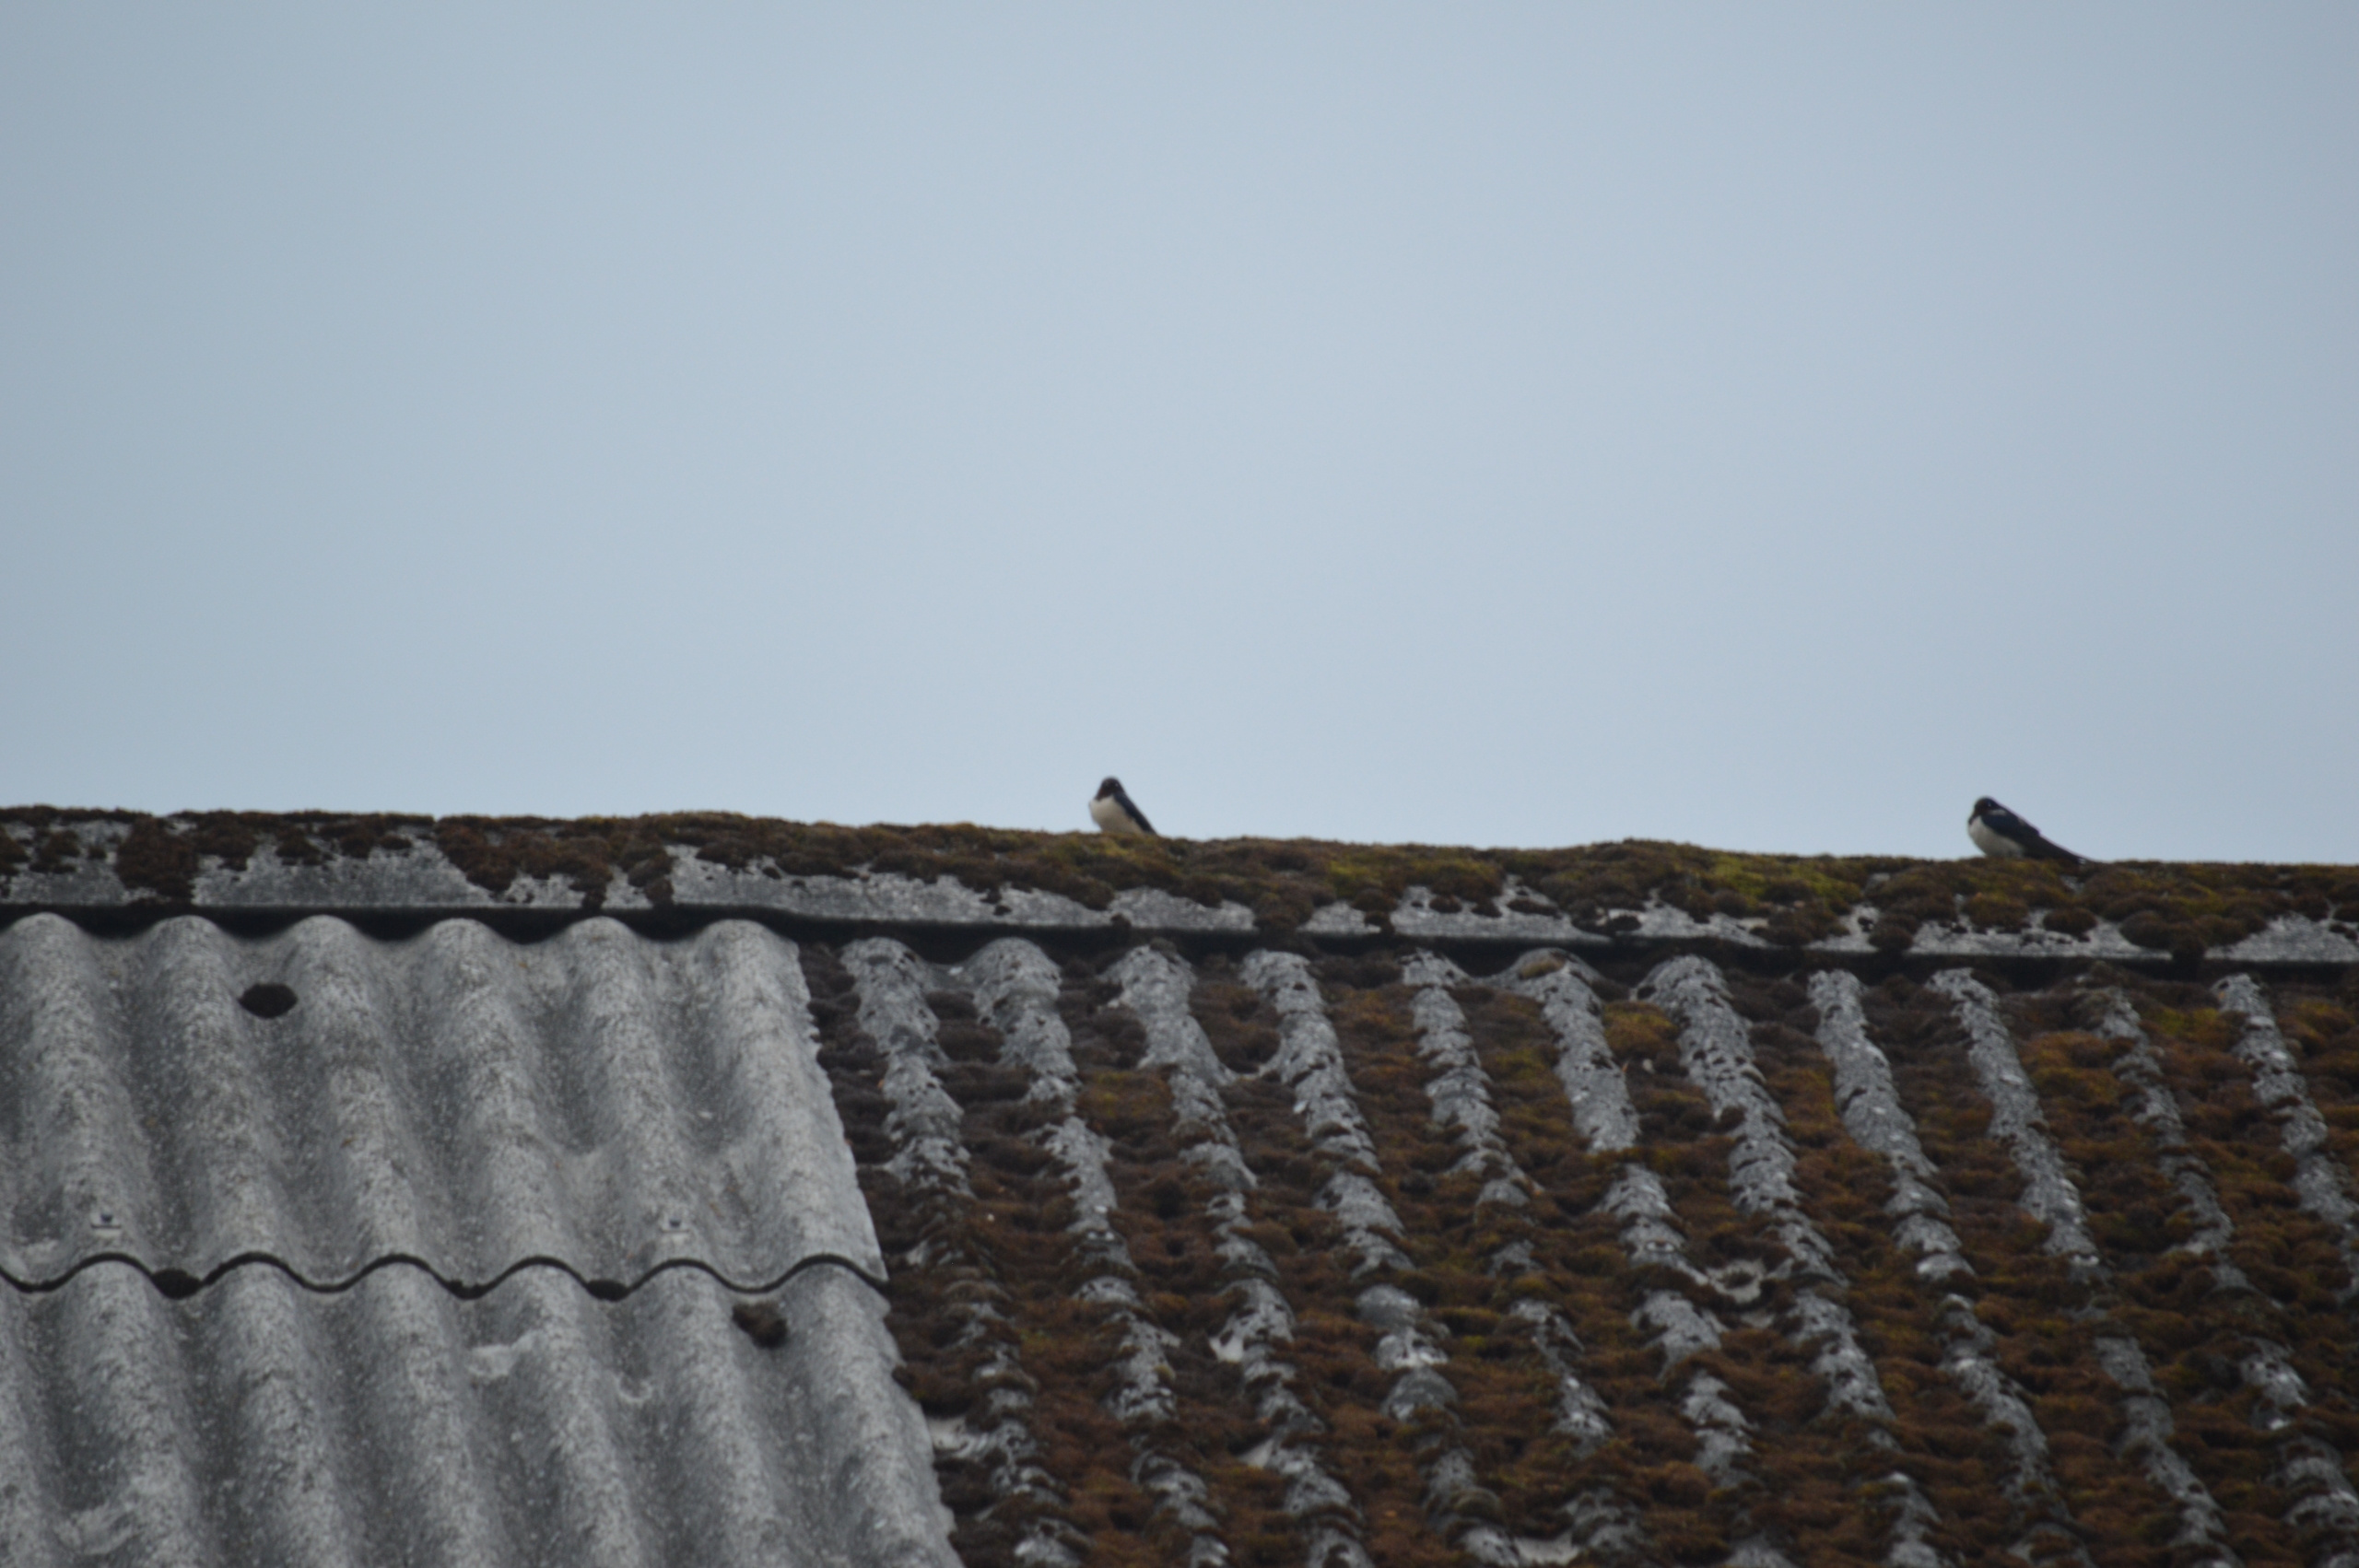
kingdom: Animalia
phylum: Chordata
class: Aves
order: Passeriformes
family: Hirundinidae
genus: Hirundo
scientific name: Hirundo rustica
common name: Landsvale
